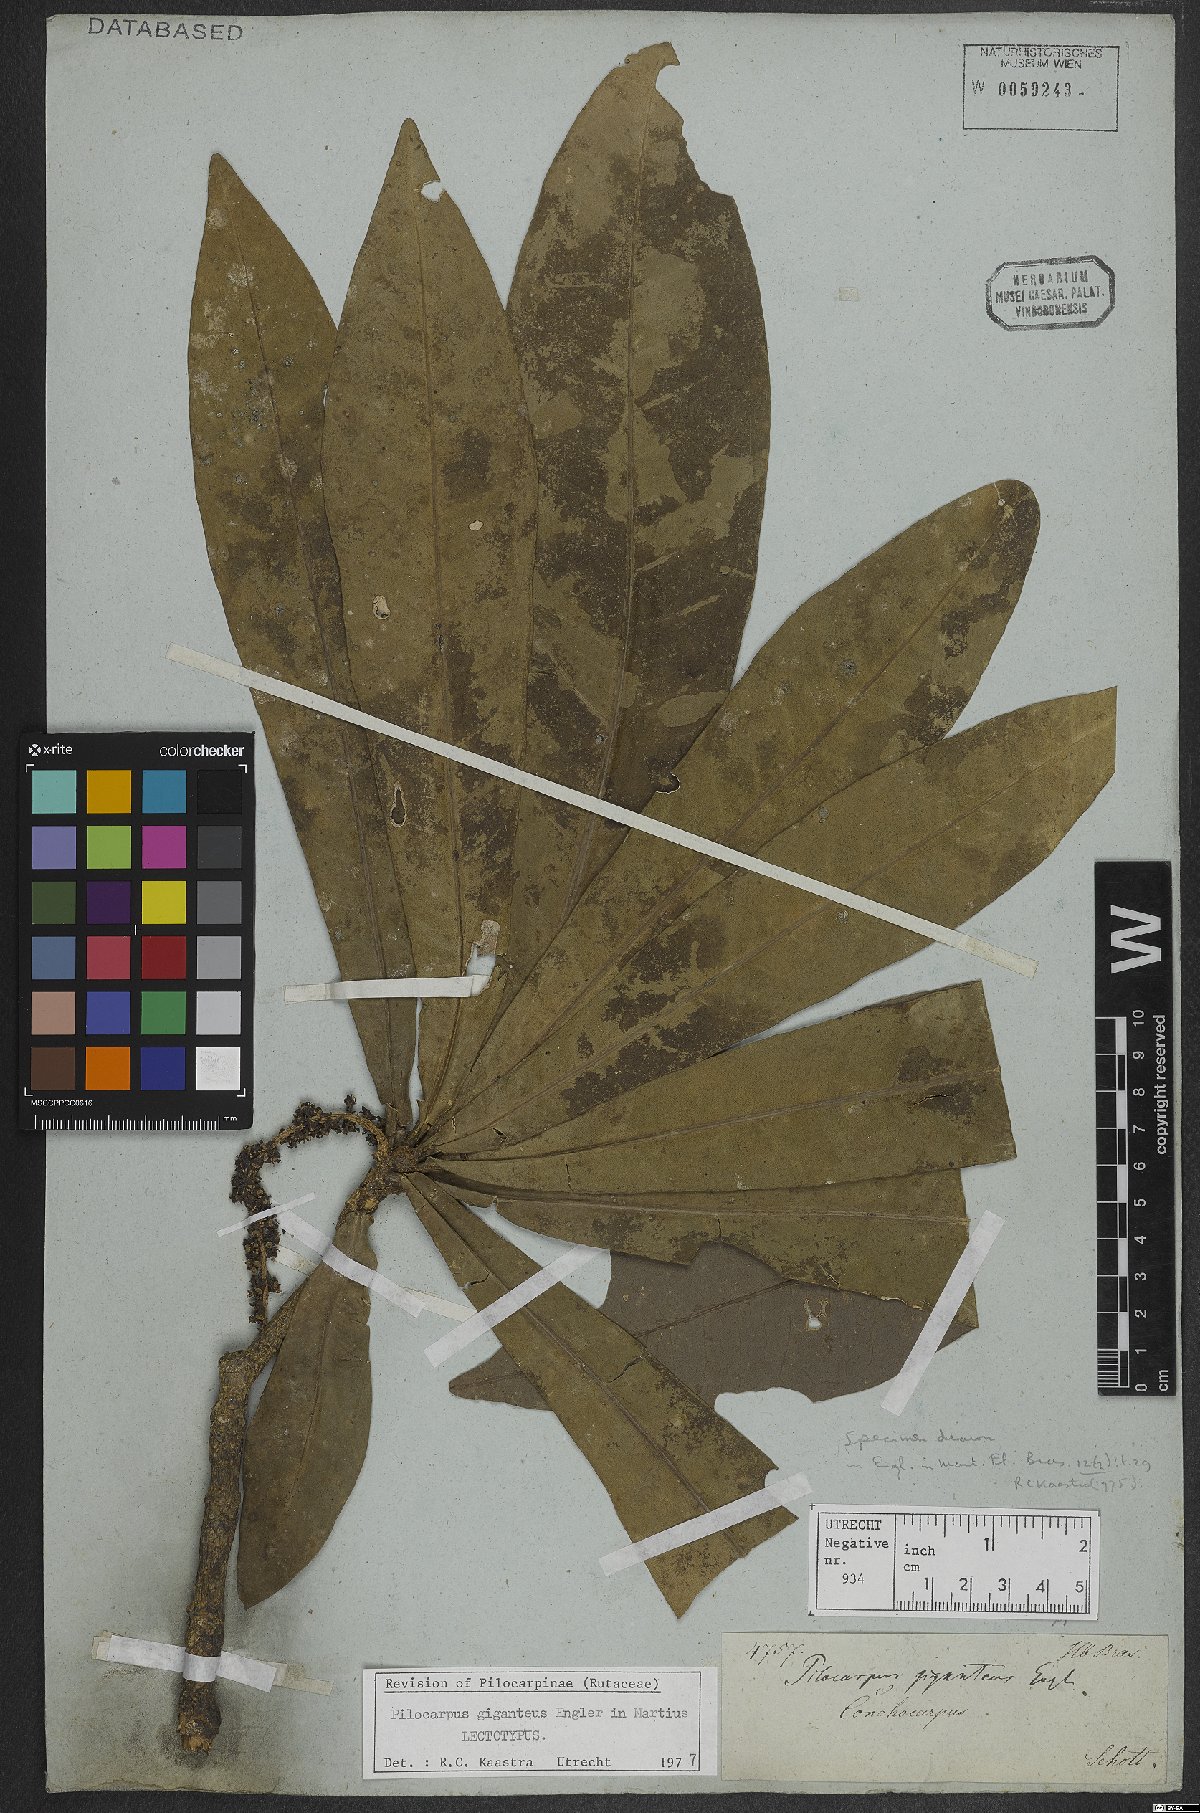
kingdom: Plantae
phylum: Tracheophyta
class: Magnoliopsida
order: Sapindales
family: Rutaceae
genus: Pilocarpus
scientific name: Pilocarpus giganteus
